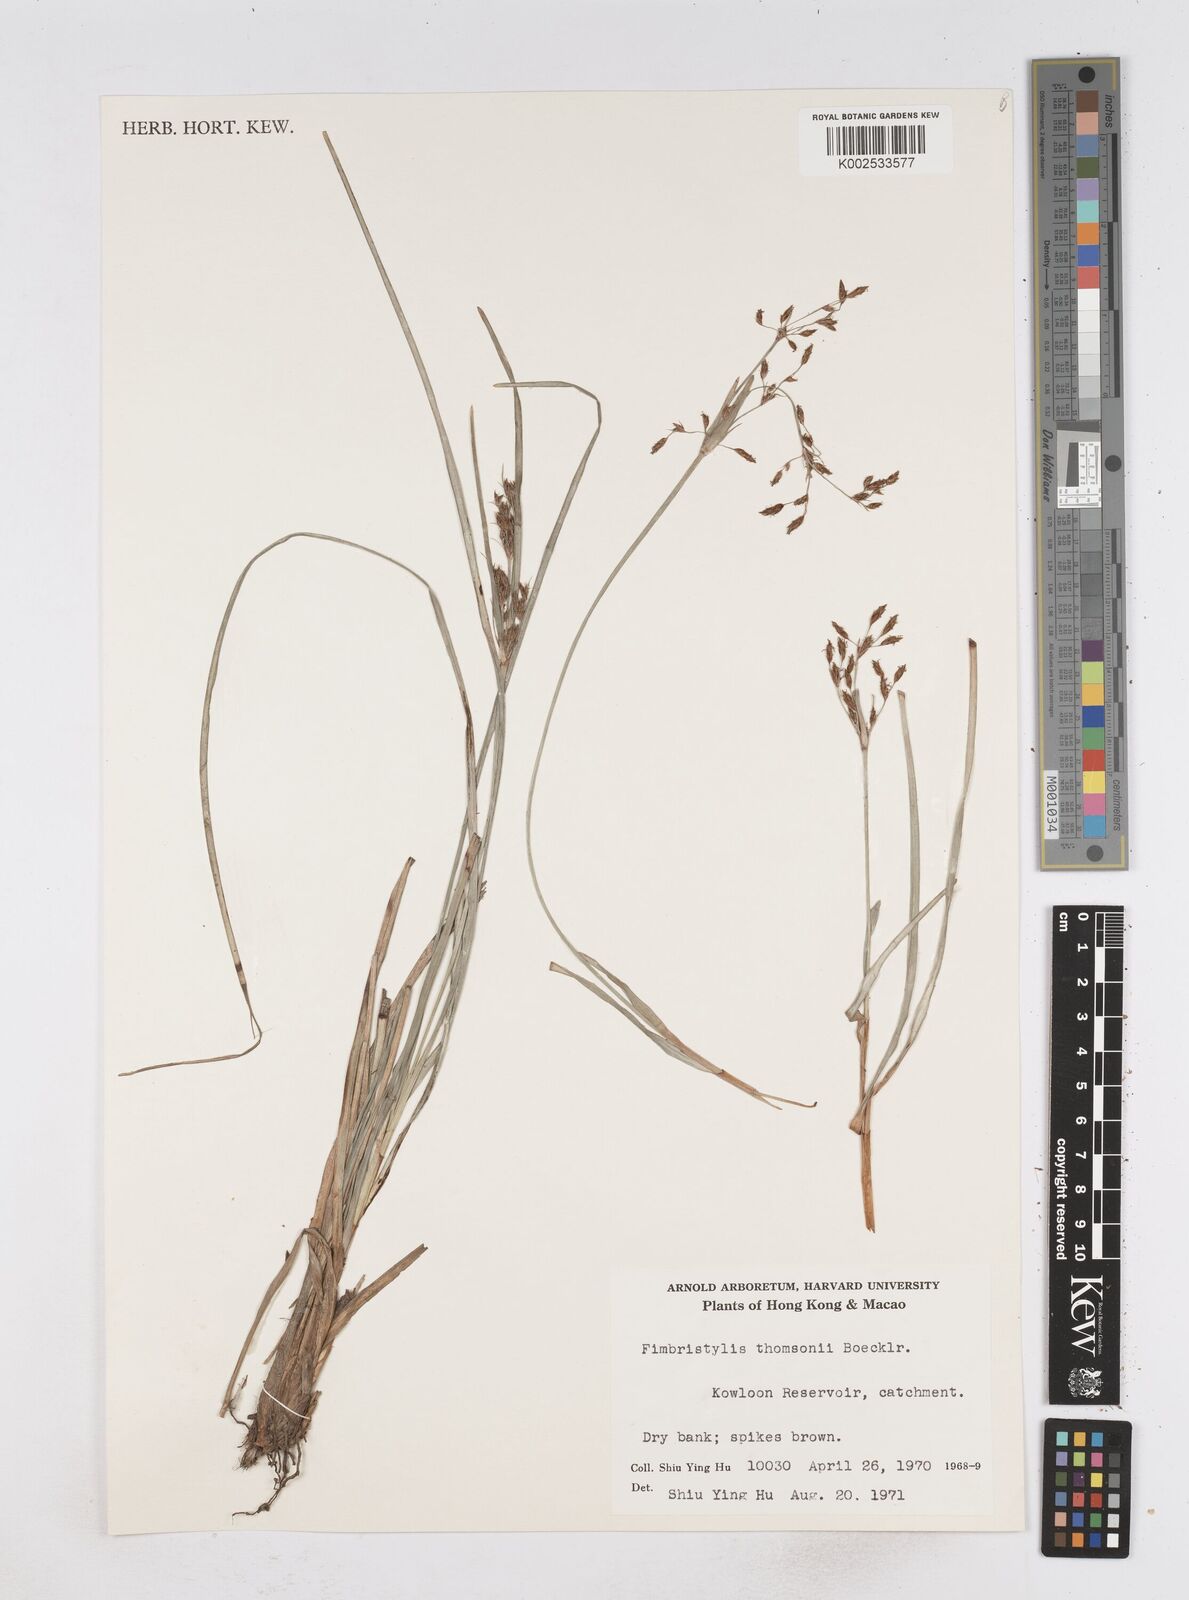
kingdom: Plantae
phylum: Tracheophyta
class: Liliopsida
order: Poales
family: Cyperaceae
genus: Fimbristylis
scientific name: Fimbristylis thomsonii
